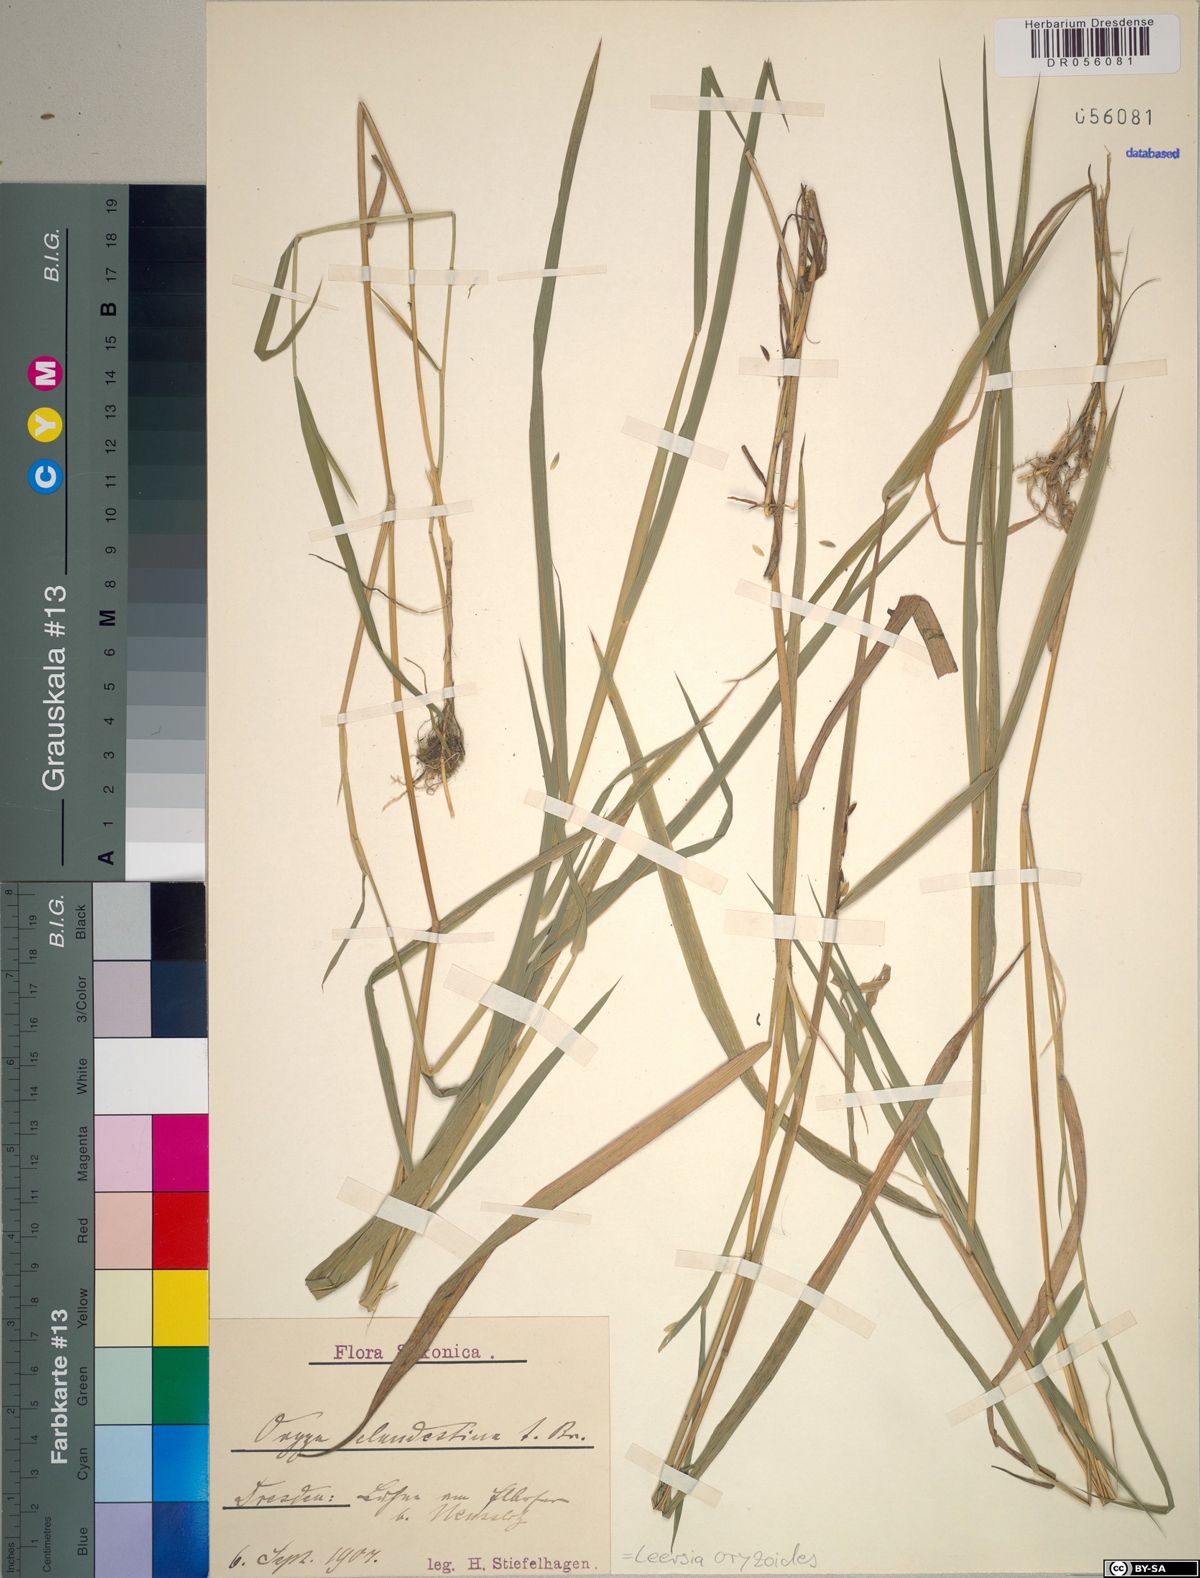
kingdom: Plantae
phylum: Tracheophyta
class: Liliopsida
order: Poales
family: Poaceae
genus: Leersia
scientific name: Leersia oryzoides
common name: Cut-grass
